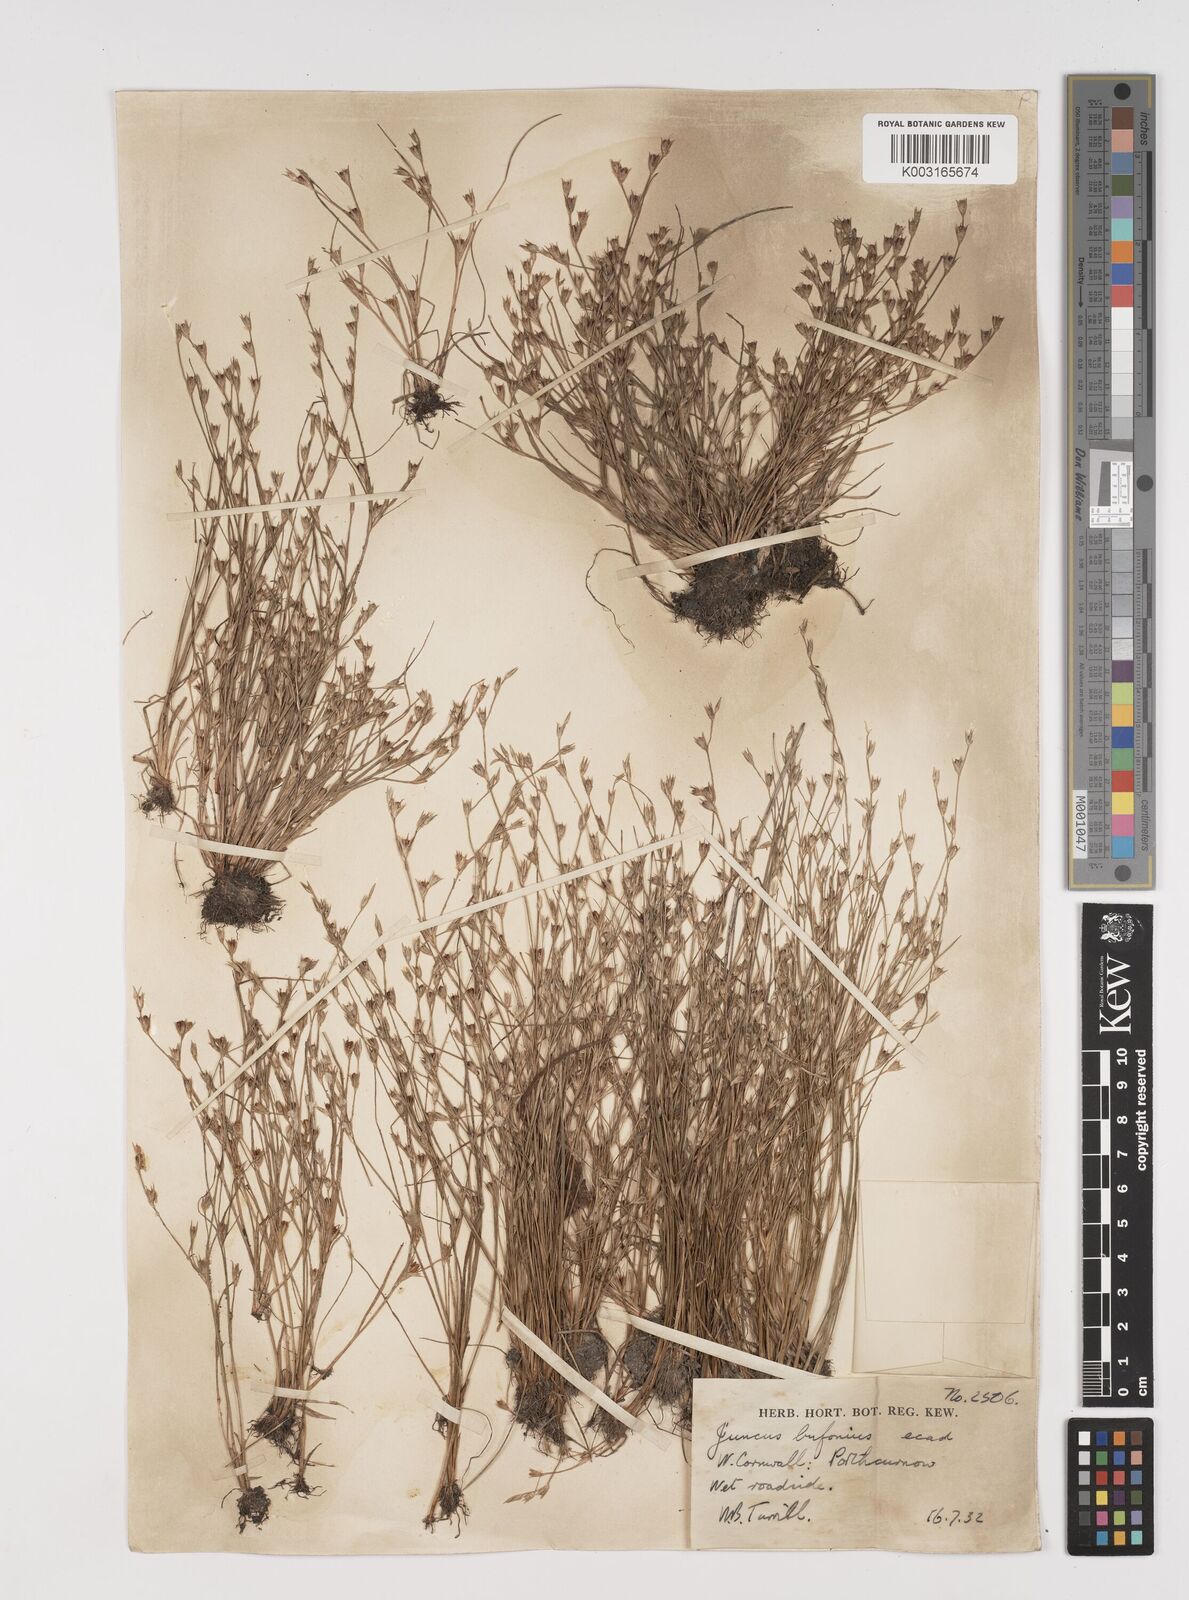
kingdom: Plantae
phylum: Tracheophyta
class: Liliopsida
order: Poales
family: Juncaceae
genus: Juncus
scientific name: Juncus bufonius
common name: Toad rush
